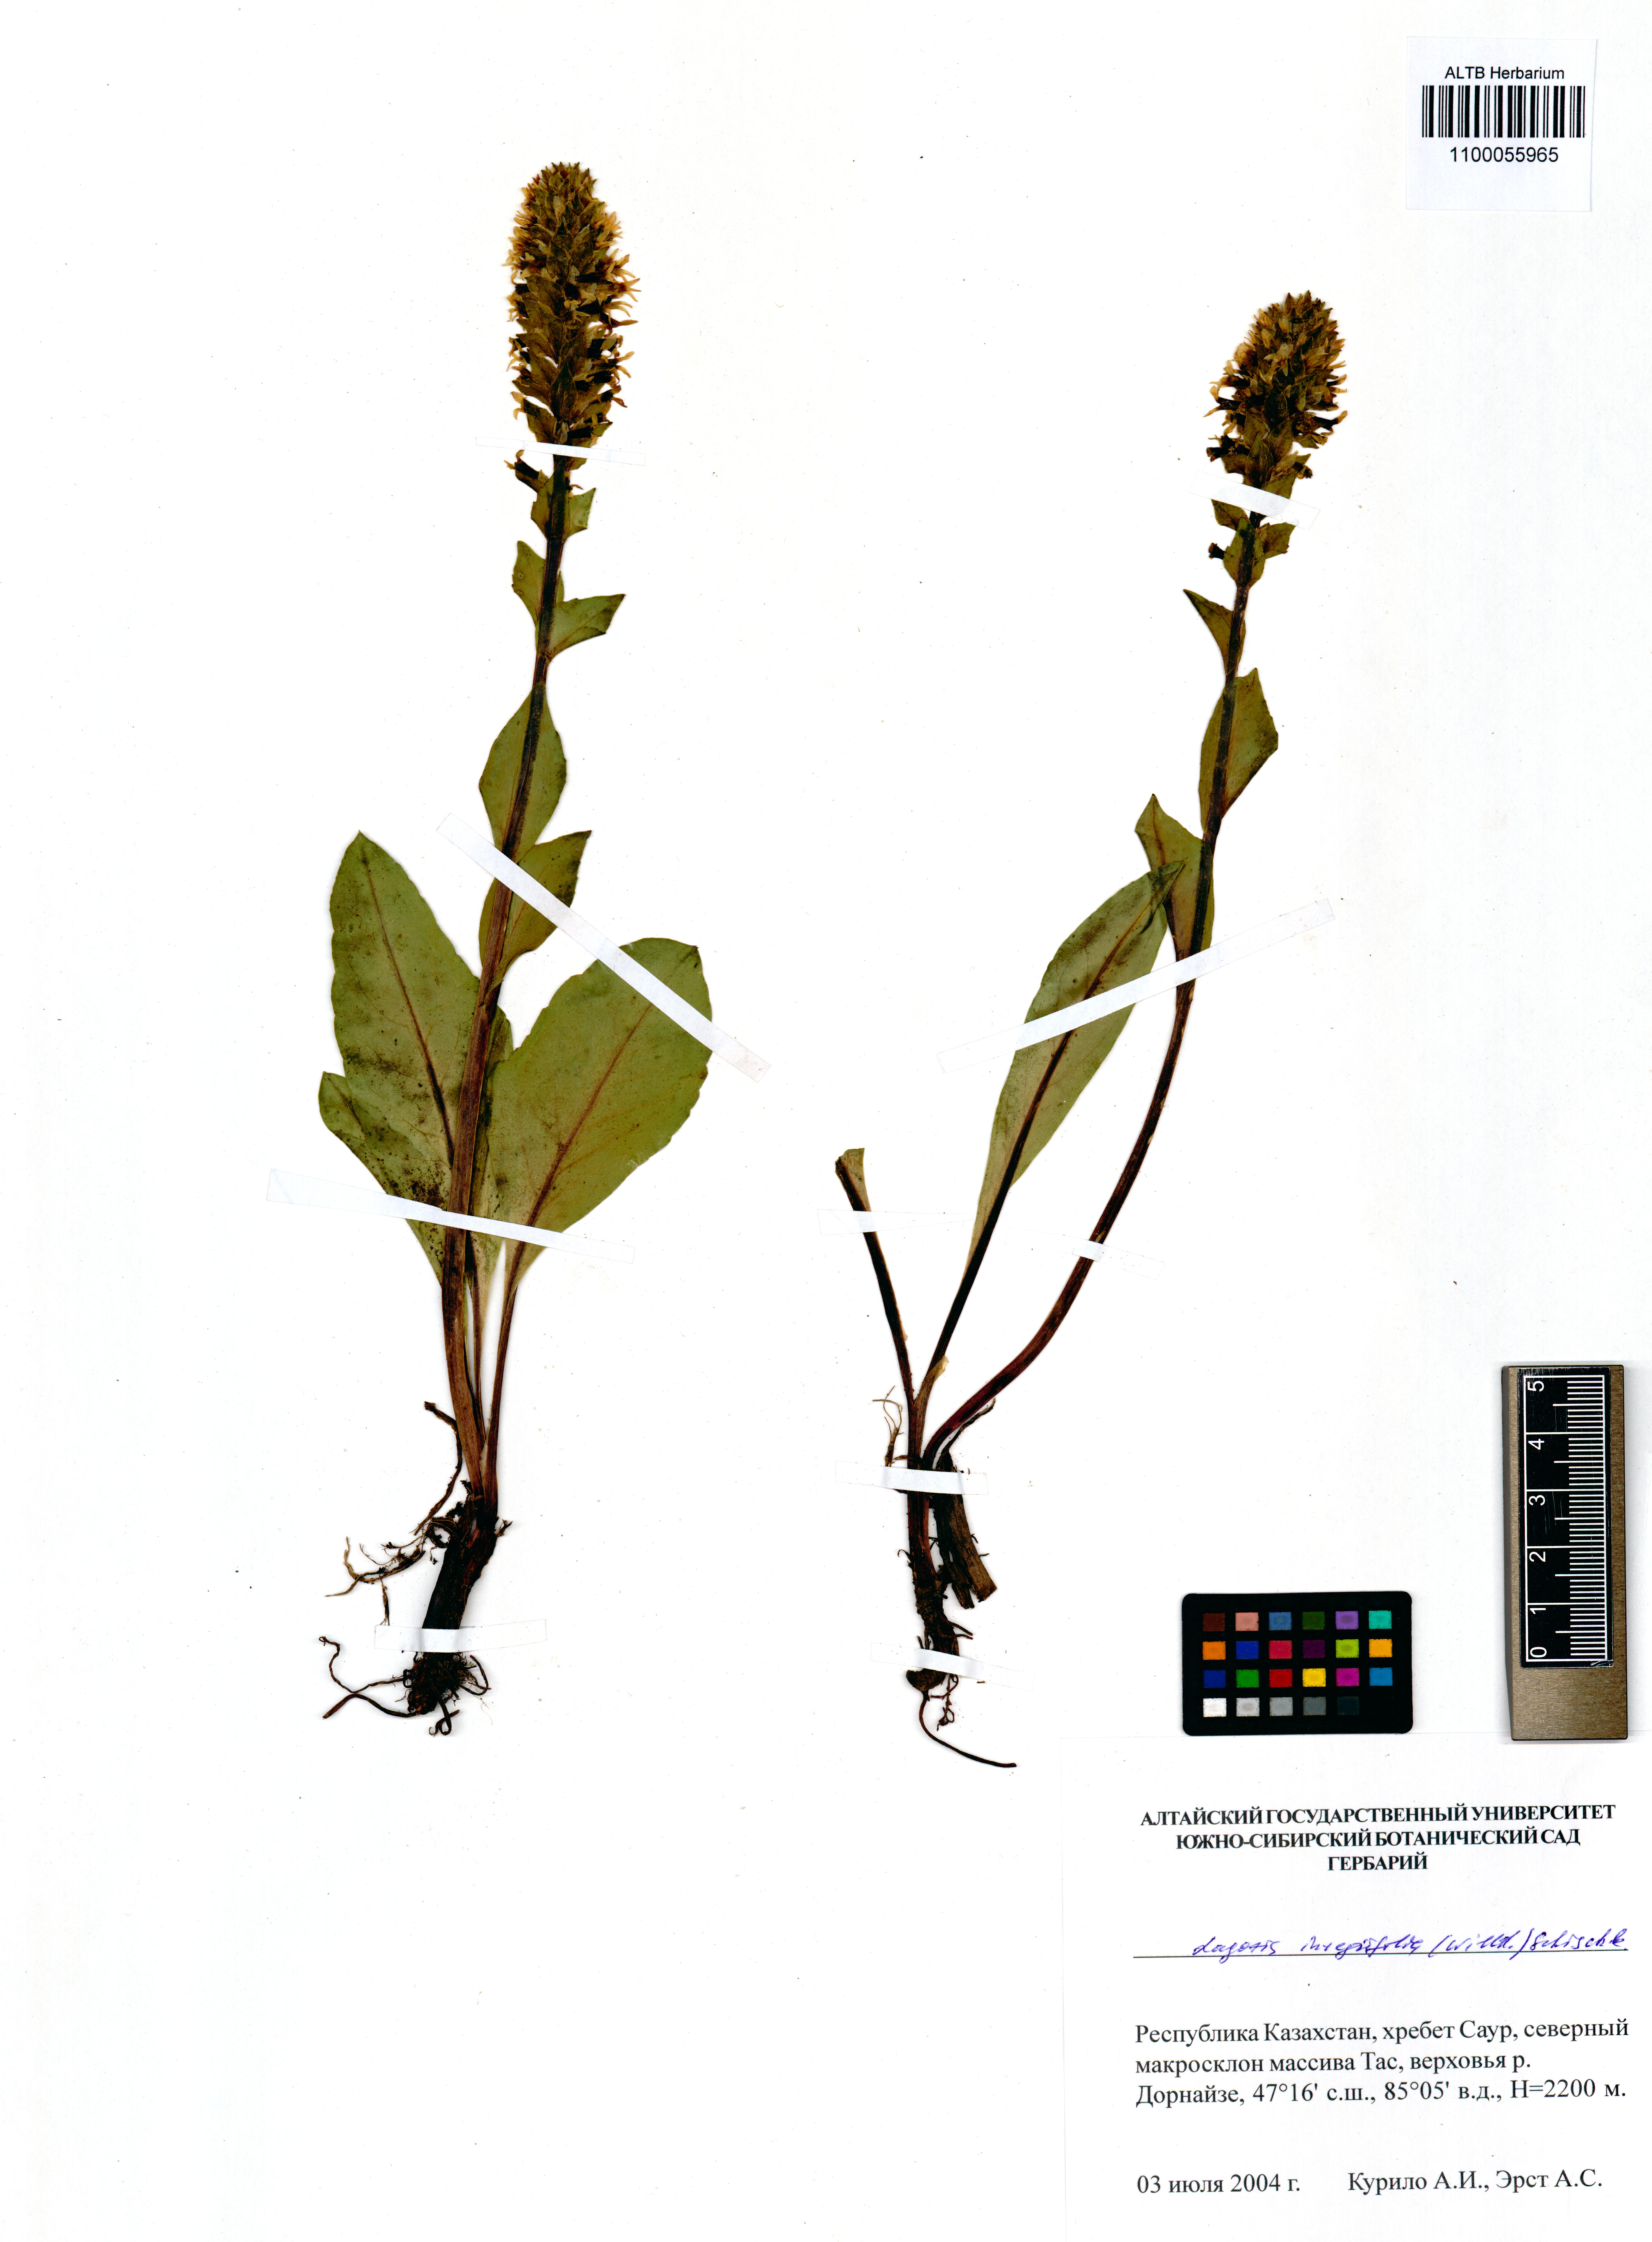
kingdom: Plantae
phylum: Tracheophyta
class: Magnoliopsida
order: Lamiales
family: Plantaginaceae
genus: Lagotis
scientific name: Lagotis integrifolia
